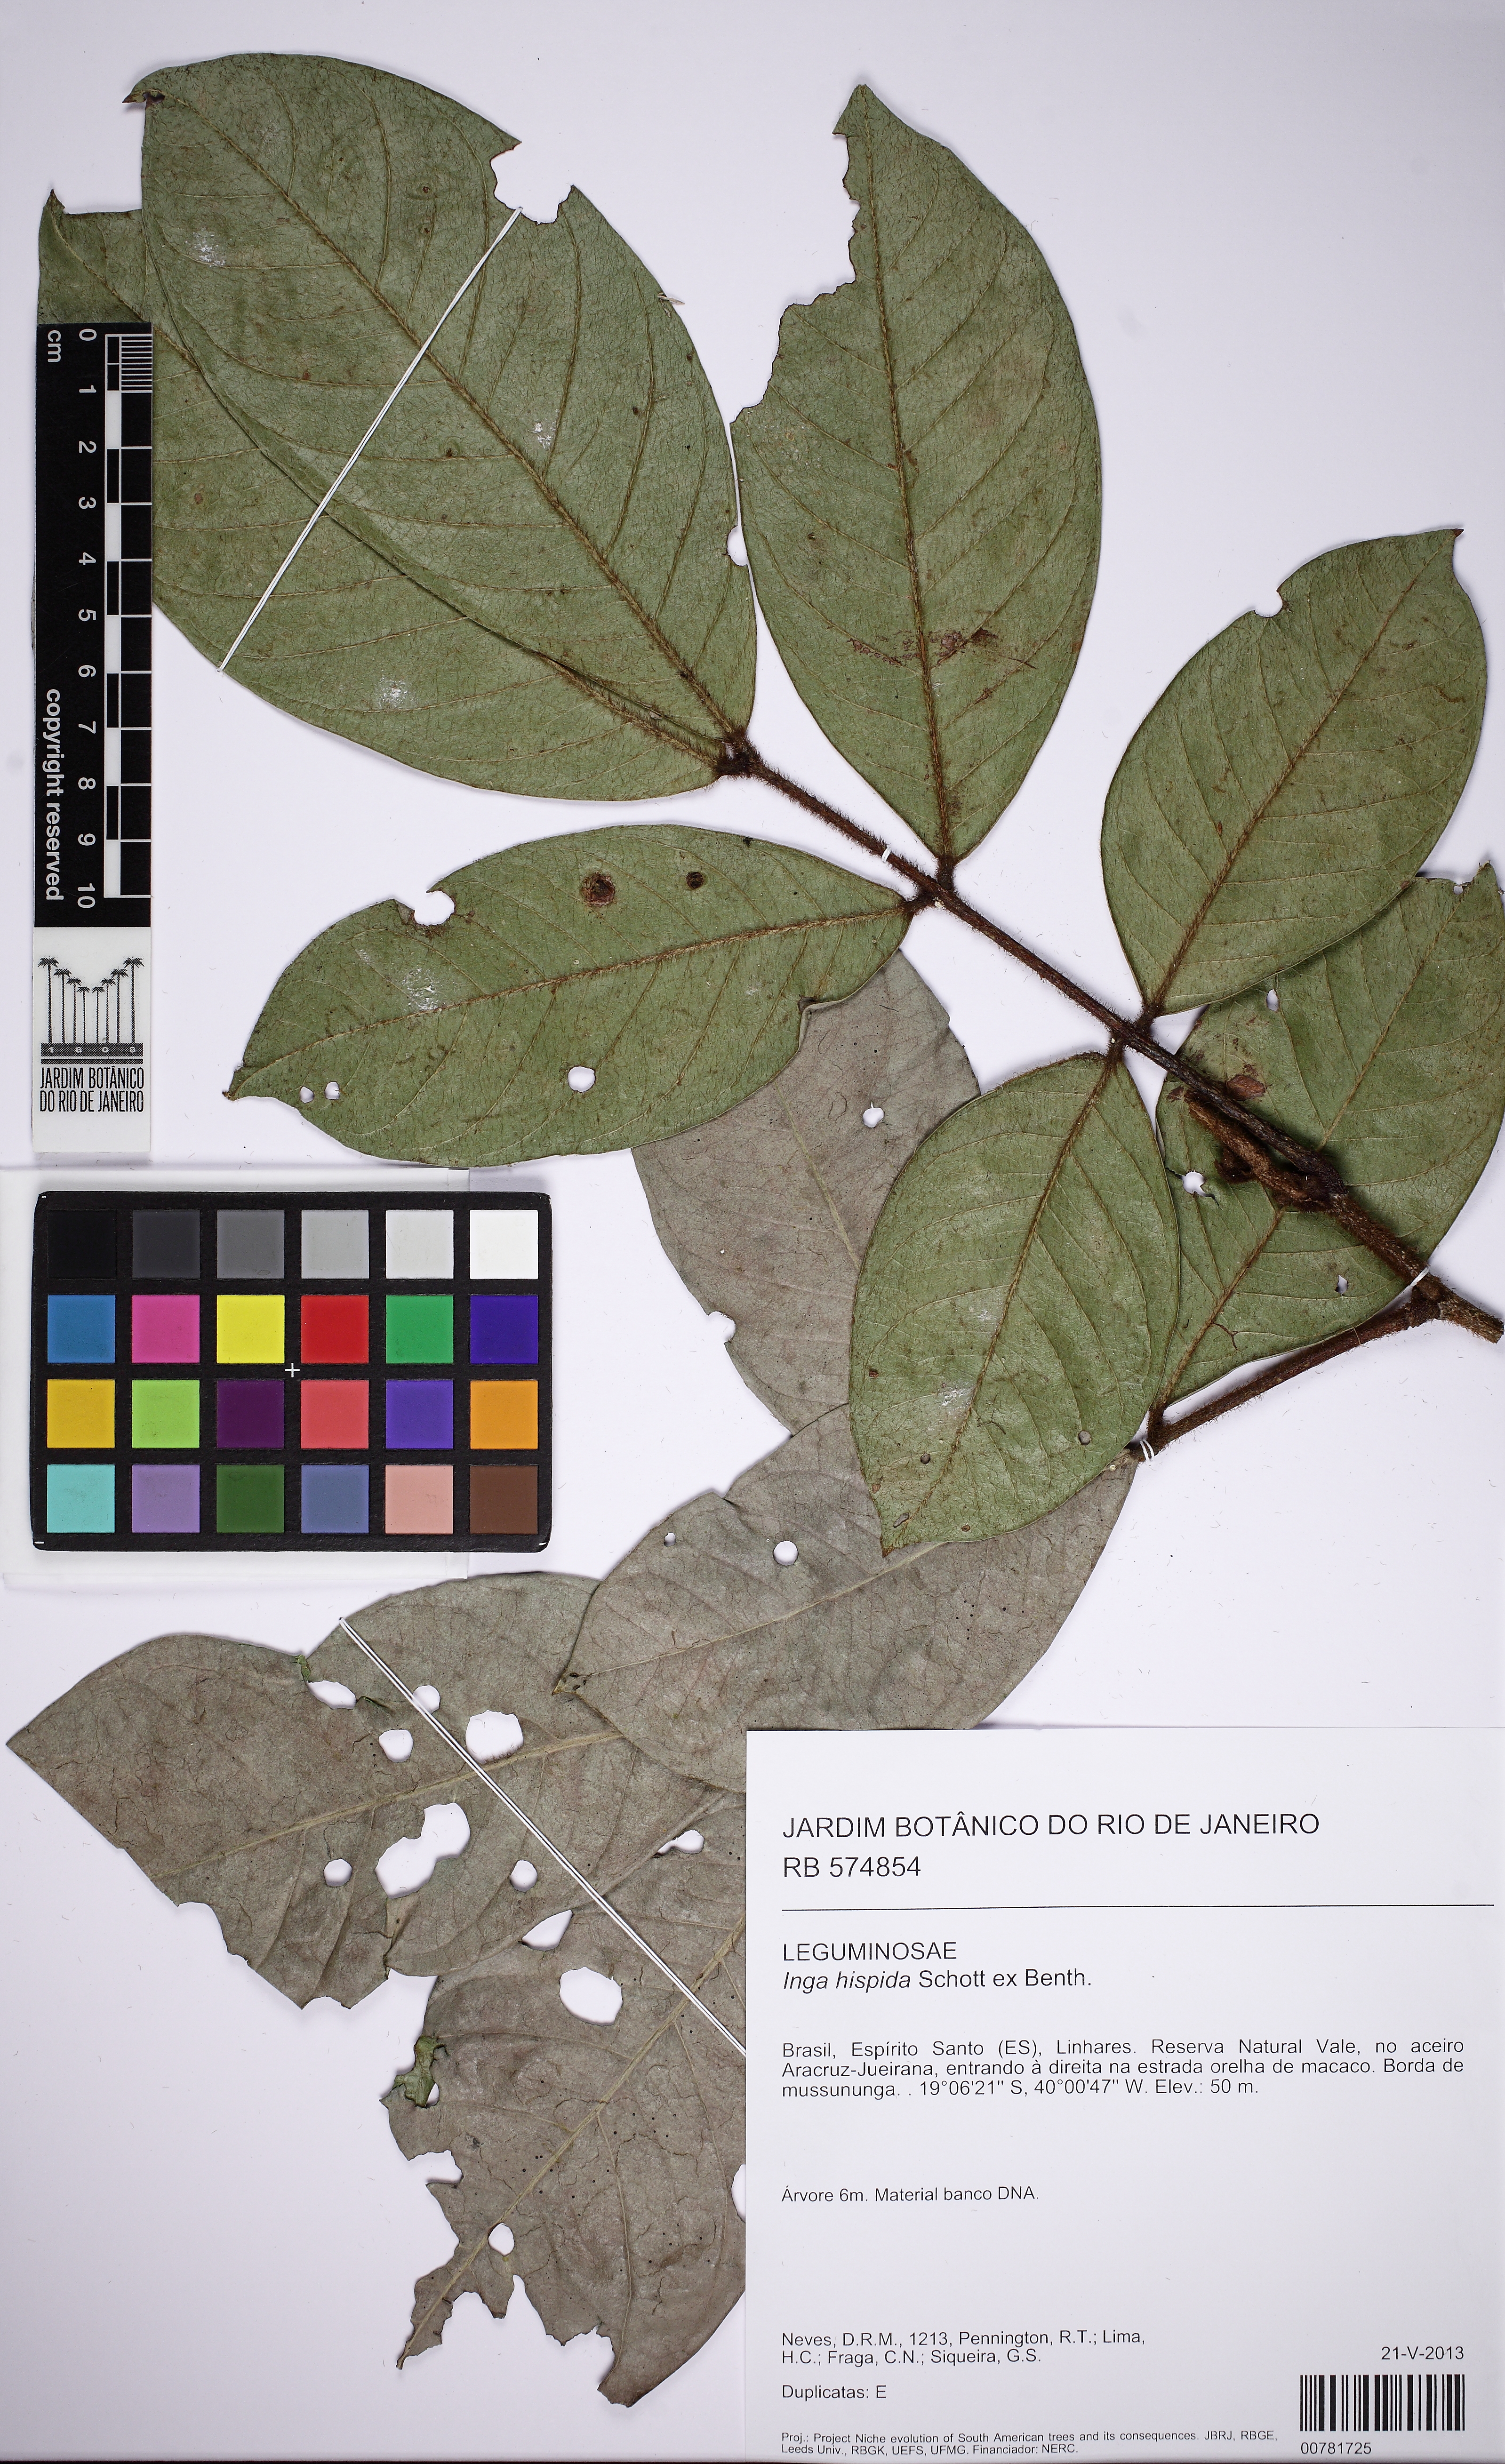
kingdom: Plantae
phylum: Tracheophyta
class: Magnoliopsida
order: Fabales
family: Fabaceae
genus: Inga
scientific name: Inga hispida
